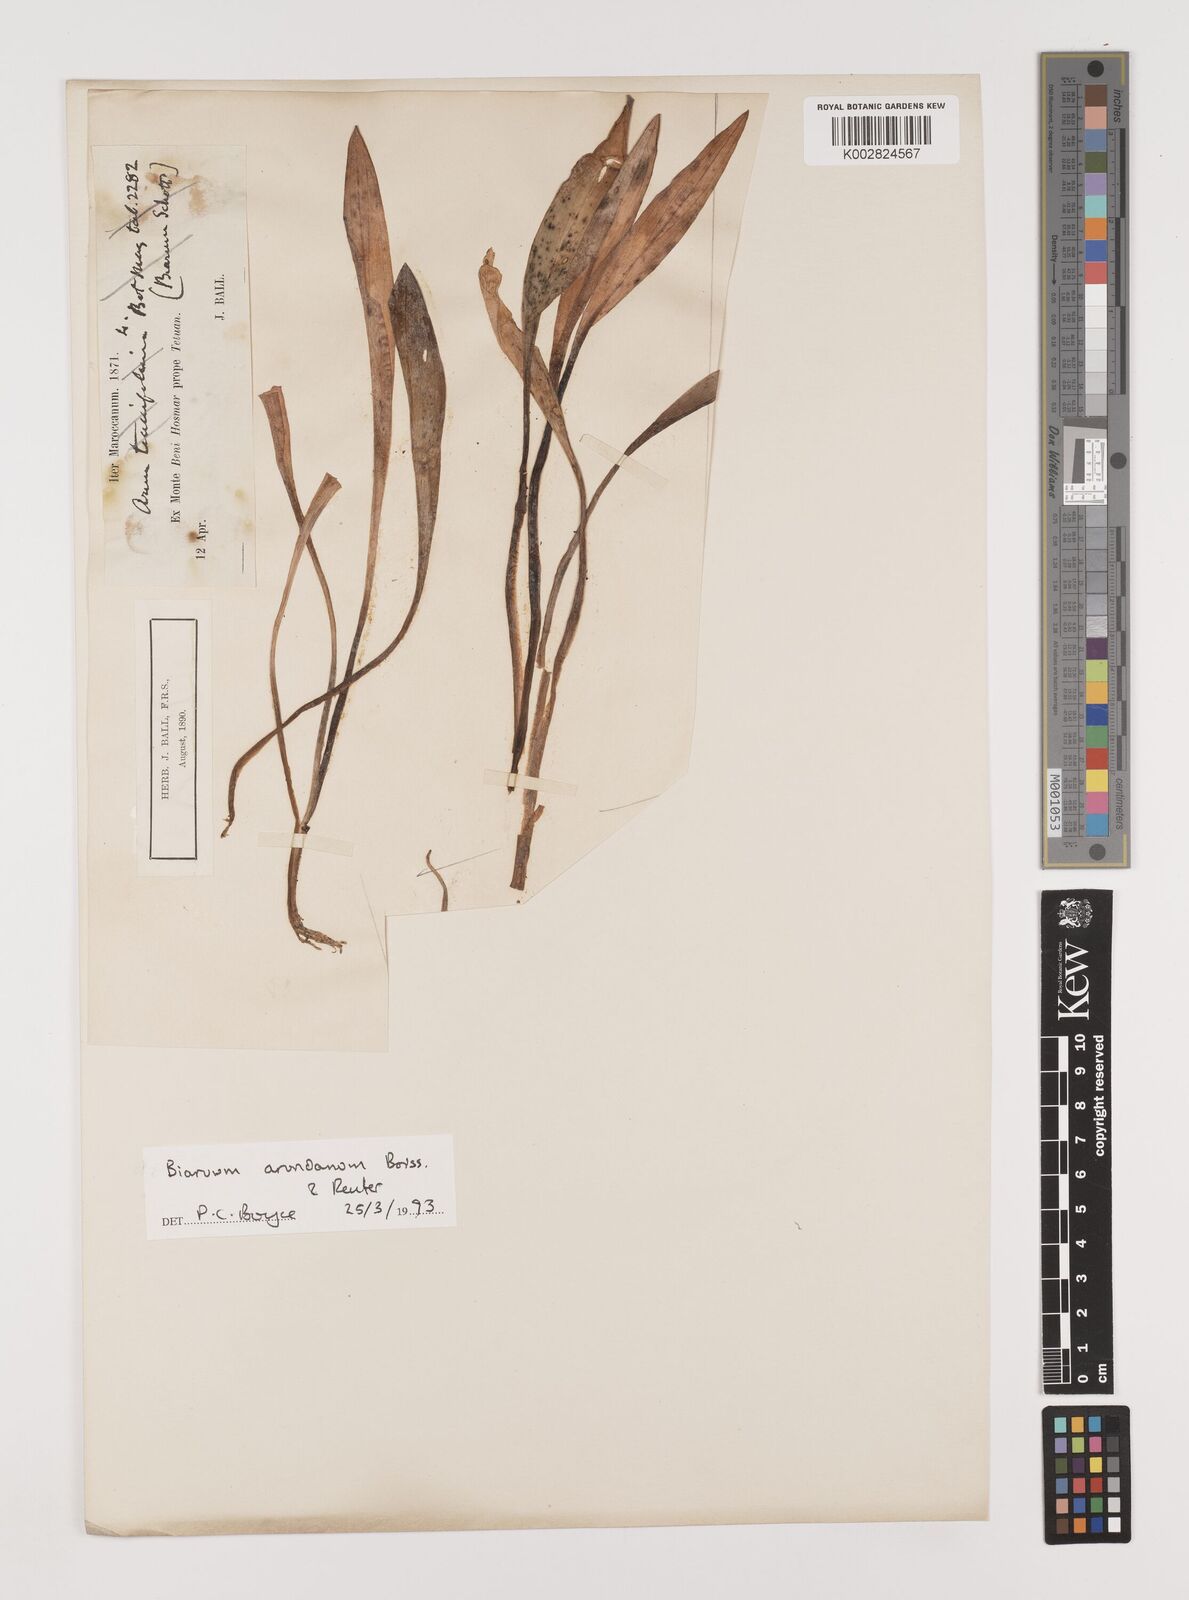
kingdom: Plantae
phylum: Tracheophyta
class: Liliopsida
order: Alismatales
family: Araceae
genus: Biarum
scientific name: Biarum tenuifolium
